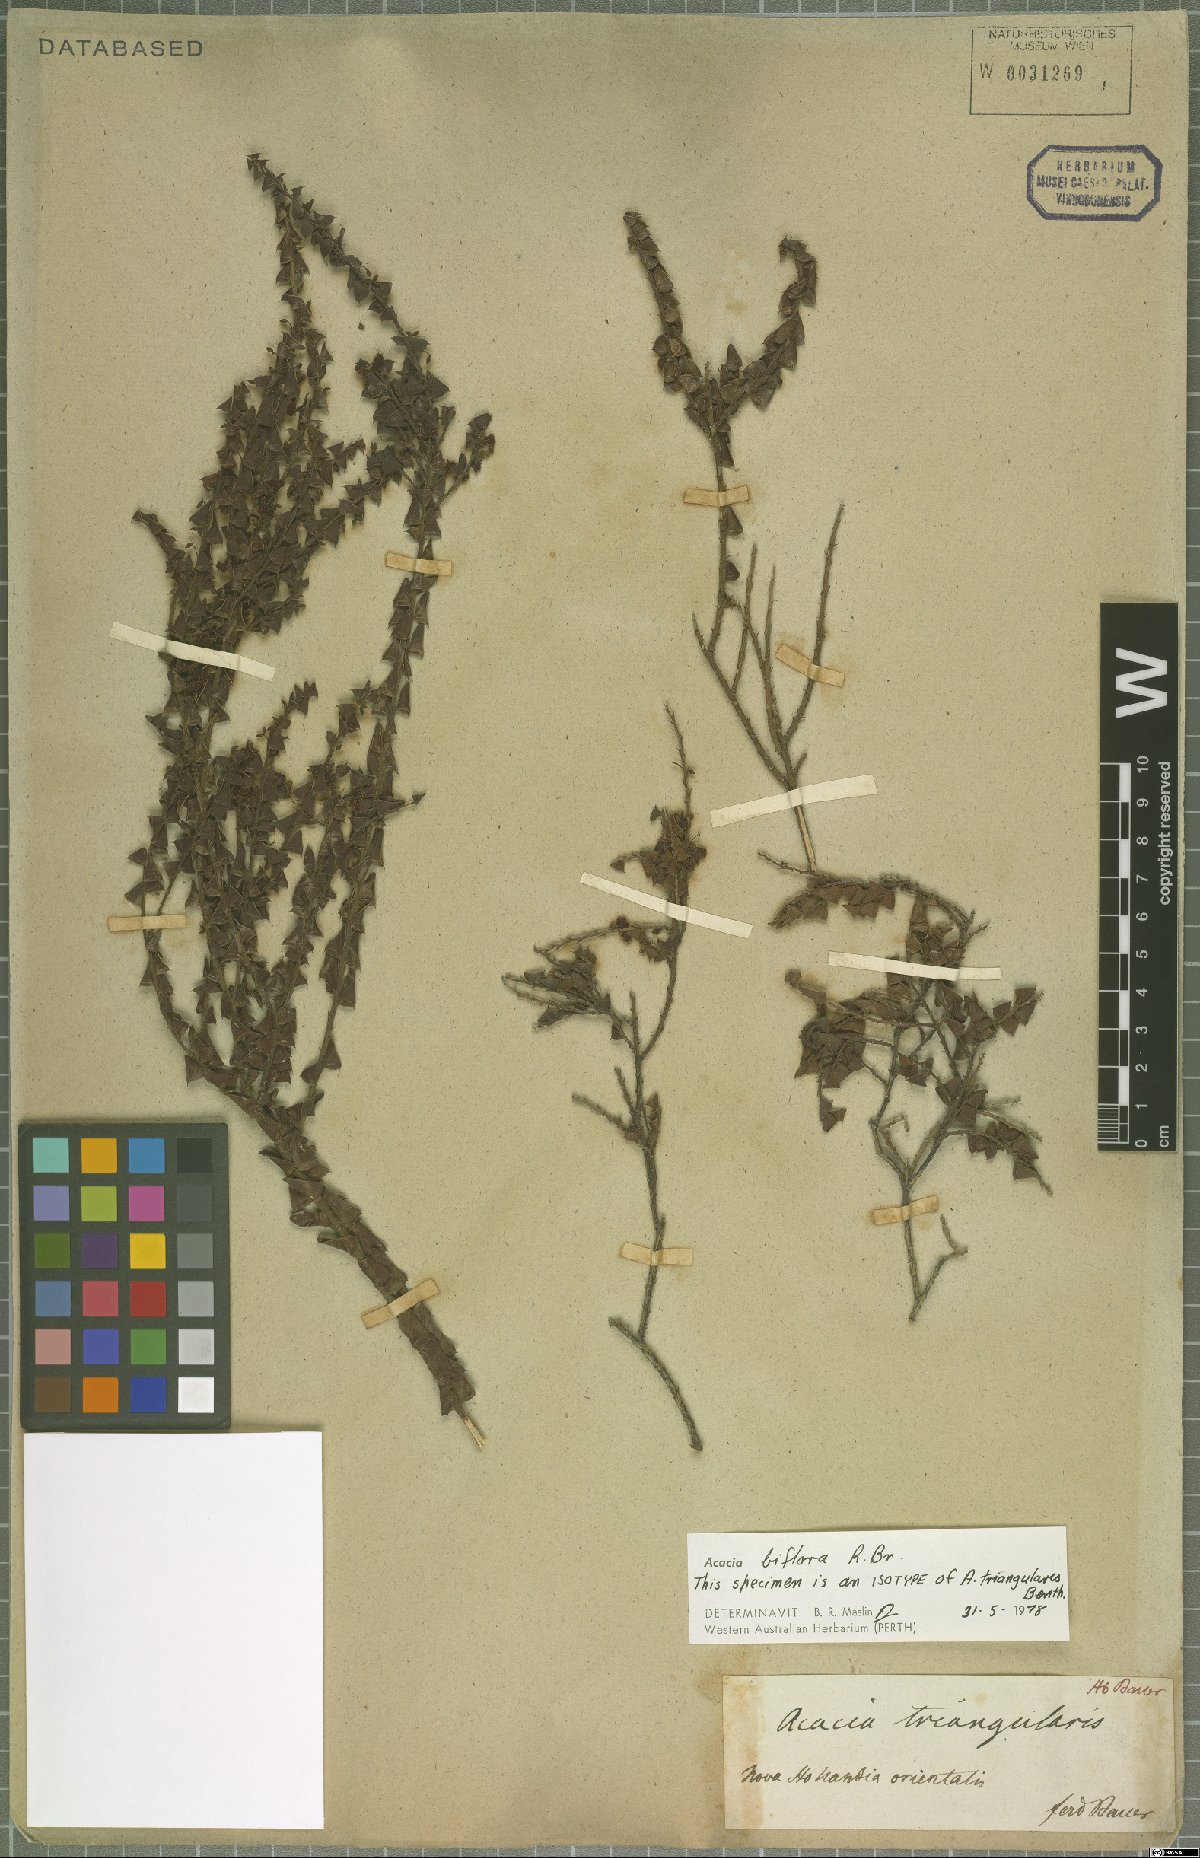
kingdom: Plantae
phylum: Tracheophyta
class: Magnoliopsida
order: Fabales
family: Fabaceae
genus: Acacia
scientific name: Acacia biflora
